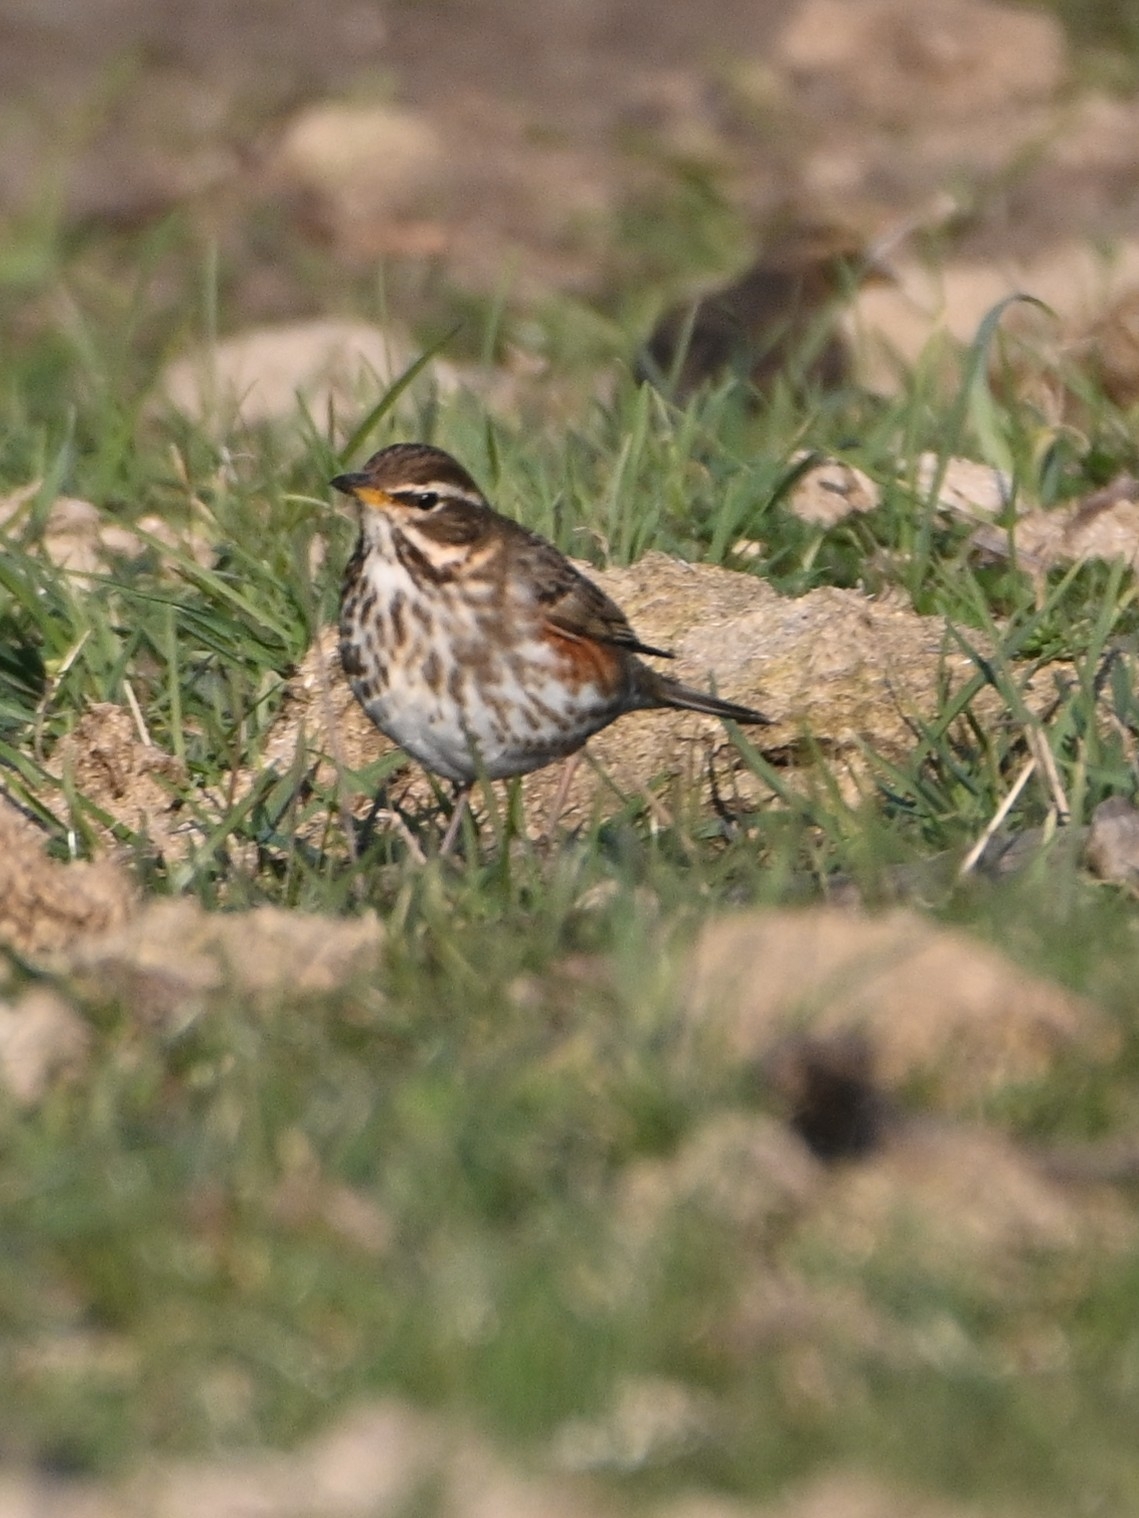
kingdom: Animalia
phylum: Chordata
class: Aves
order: Passeriformes
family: Turdidae
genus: Turdus
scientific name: Turdus iliacus
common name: Vindrossel
